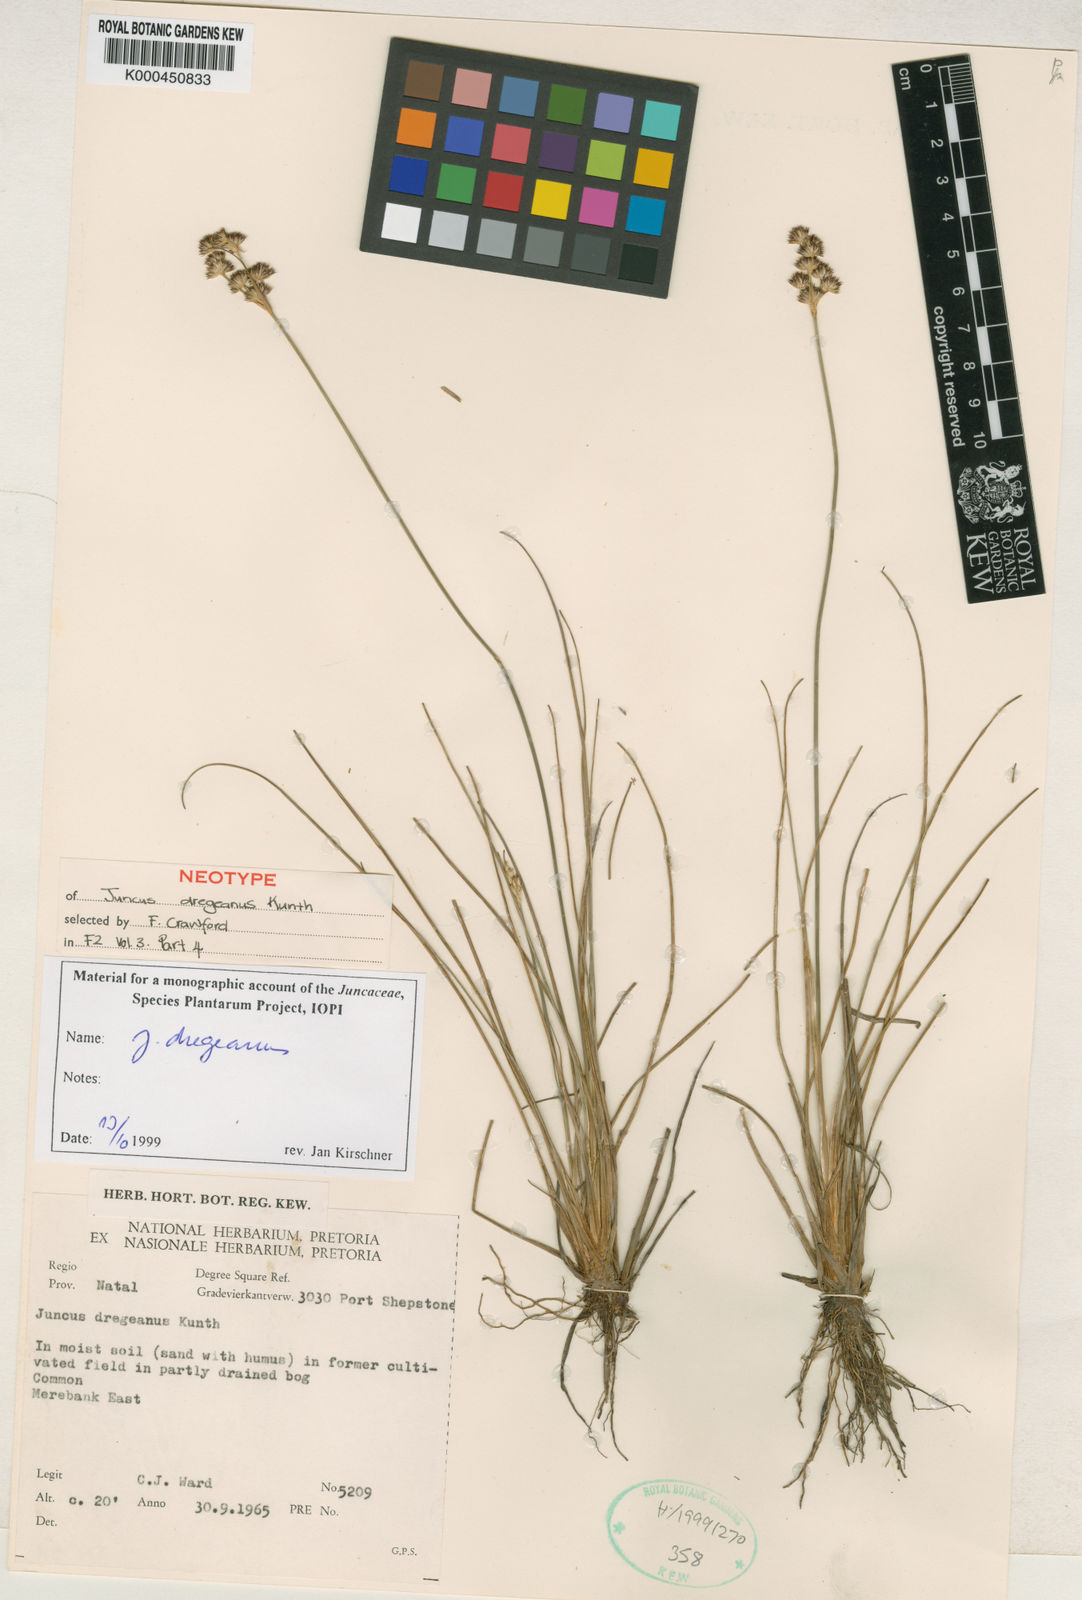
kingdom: Plantae
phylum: Tracheophyta
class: Liliopsida
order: Poales
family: Juncaceae
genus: Juncus
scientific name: Juncus dregeanus
